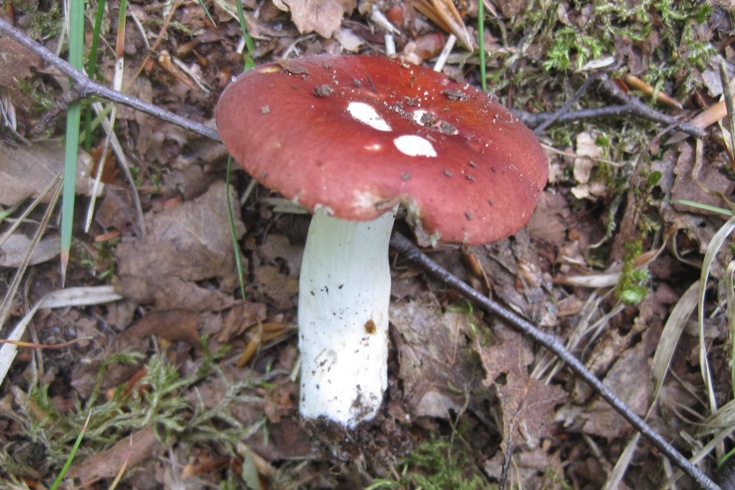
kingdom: Fungi
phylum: Basidiomycota
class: Agaricomycetes
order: Russulales
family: Russulaceae
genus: Russula
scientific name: Russula
